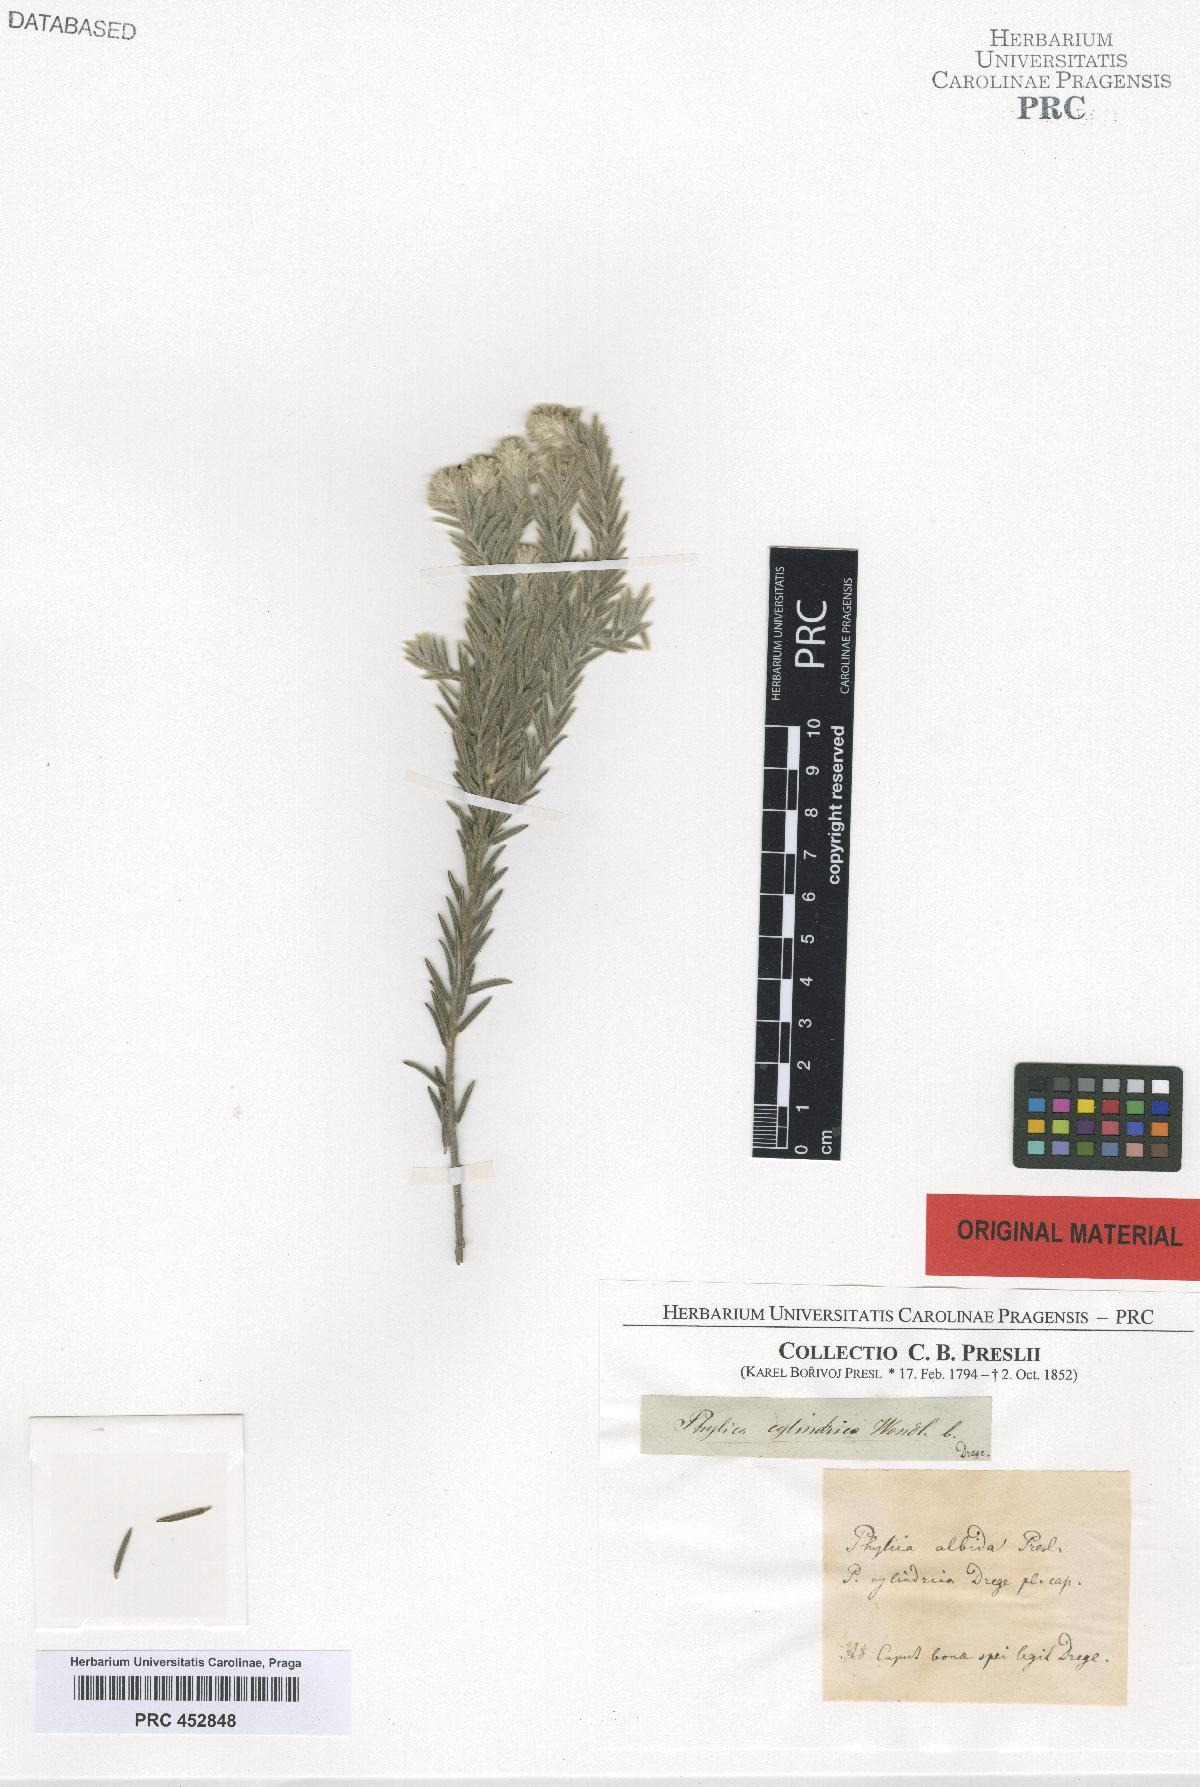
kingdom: Plantae
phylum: Tracheophyta
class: Magnoliopsida
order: Rosales
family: Rhamnaceae
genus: Phylica
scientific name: Phylica excelsa
